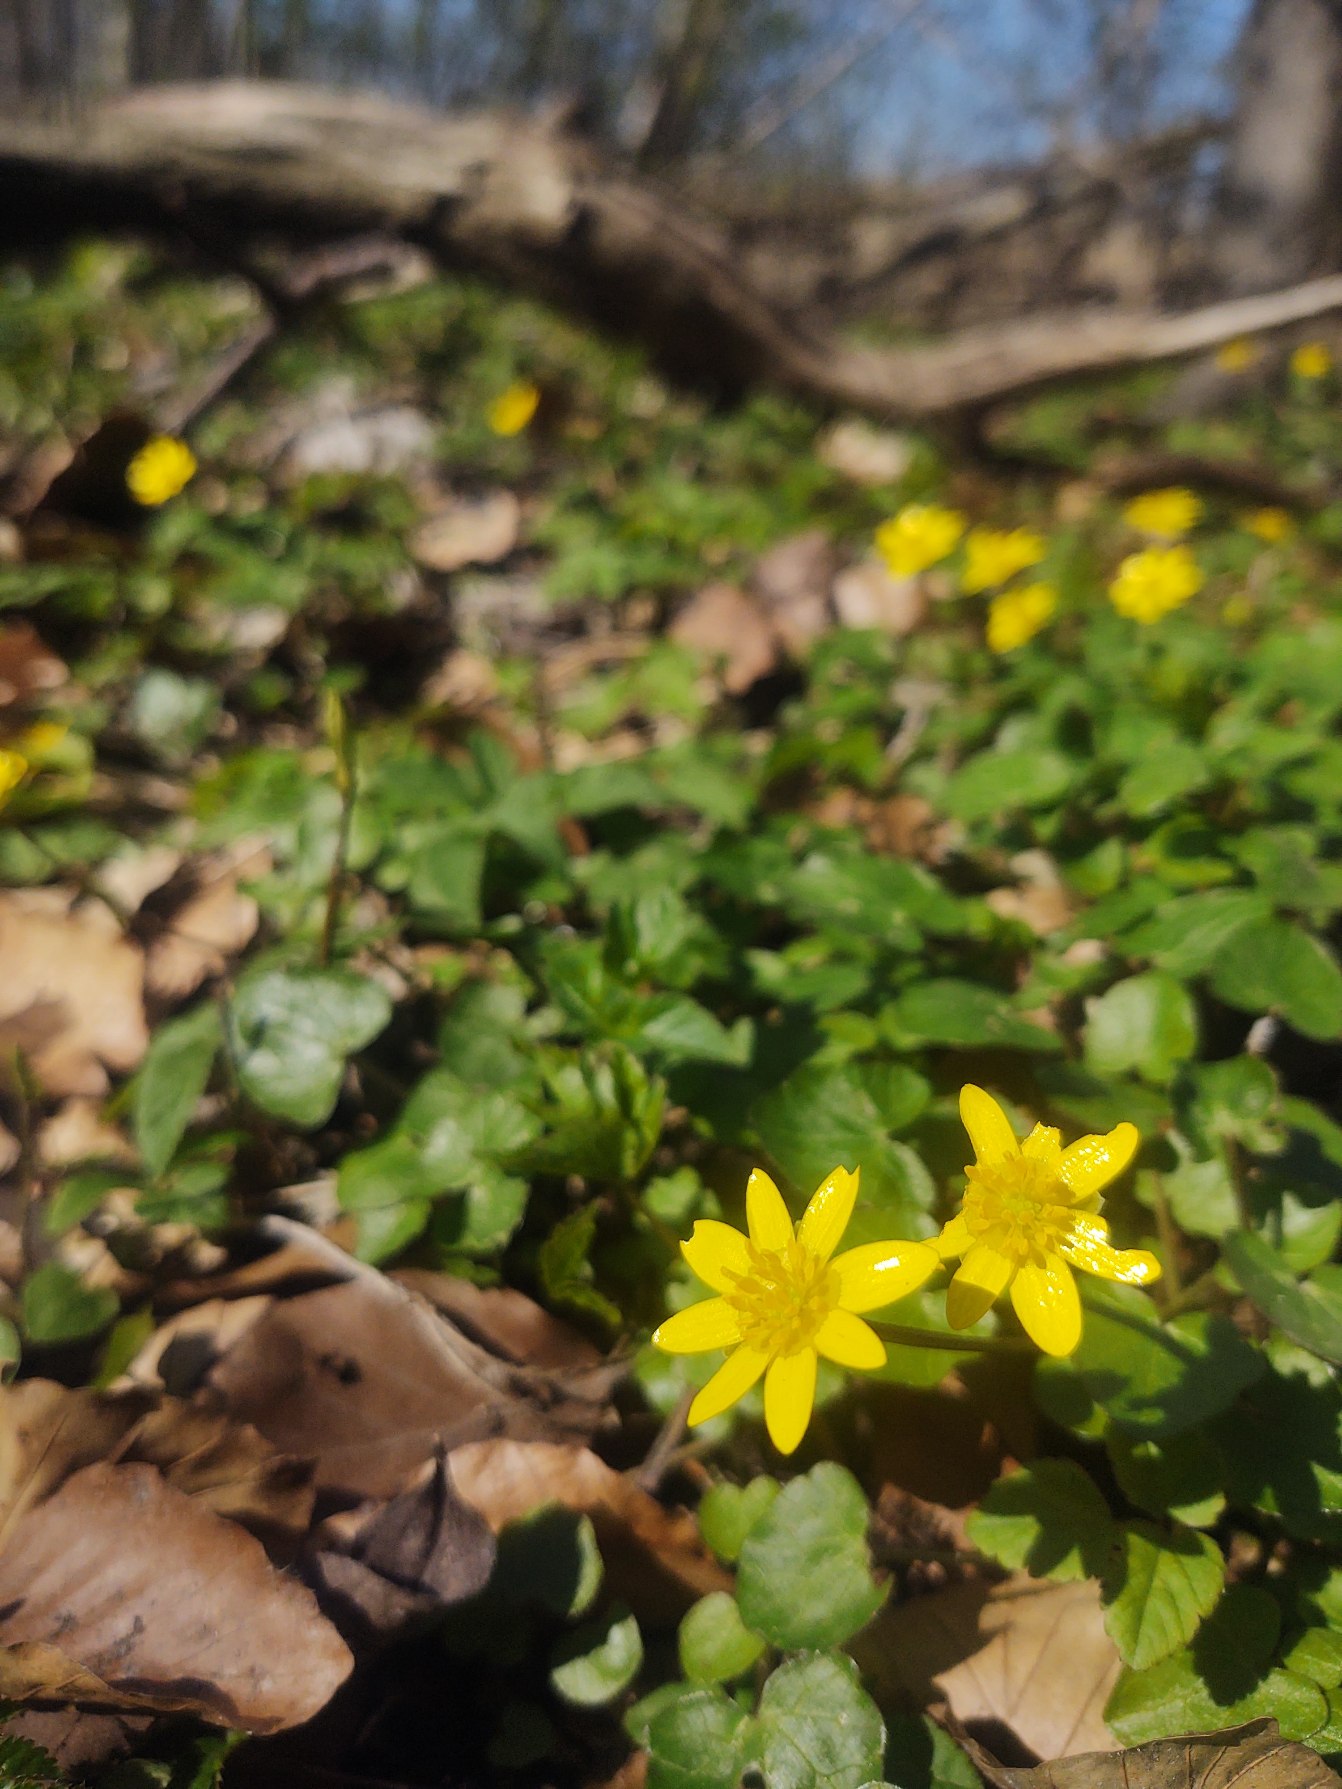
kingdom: Plantae
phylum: Tracheophyta
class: Magnoliopsida
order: Ranunculales
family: Ranunculaceae
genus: Ficaria
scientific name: Ficaria verna
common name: Vorterod
